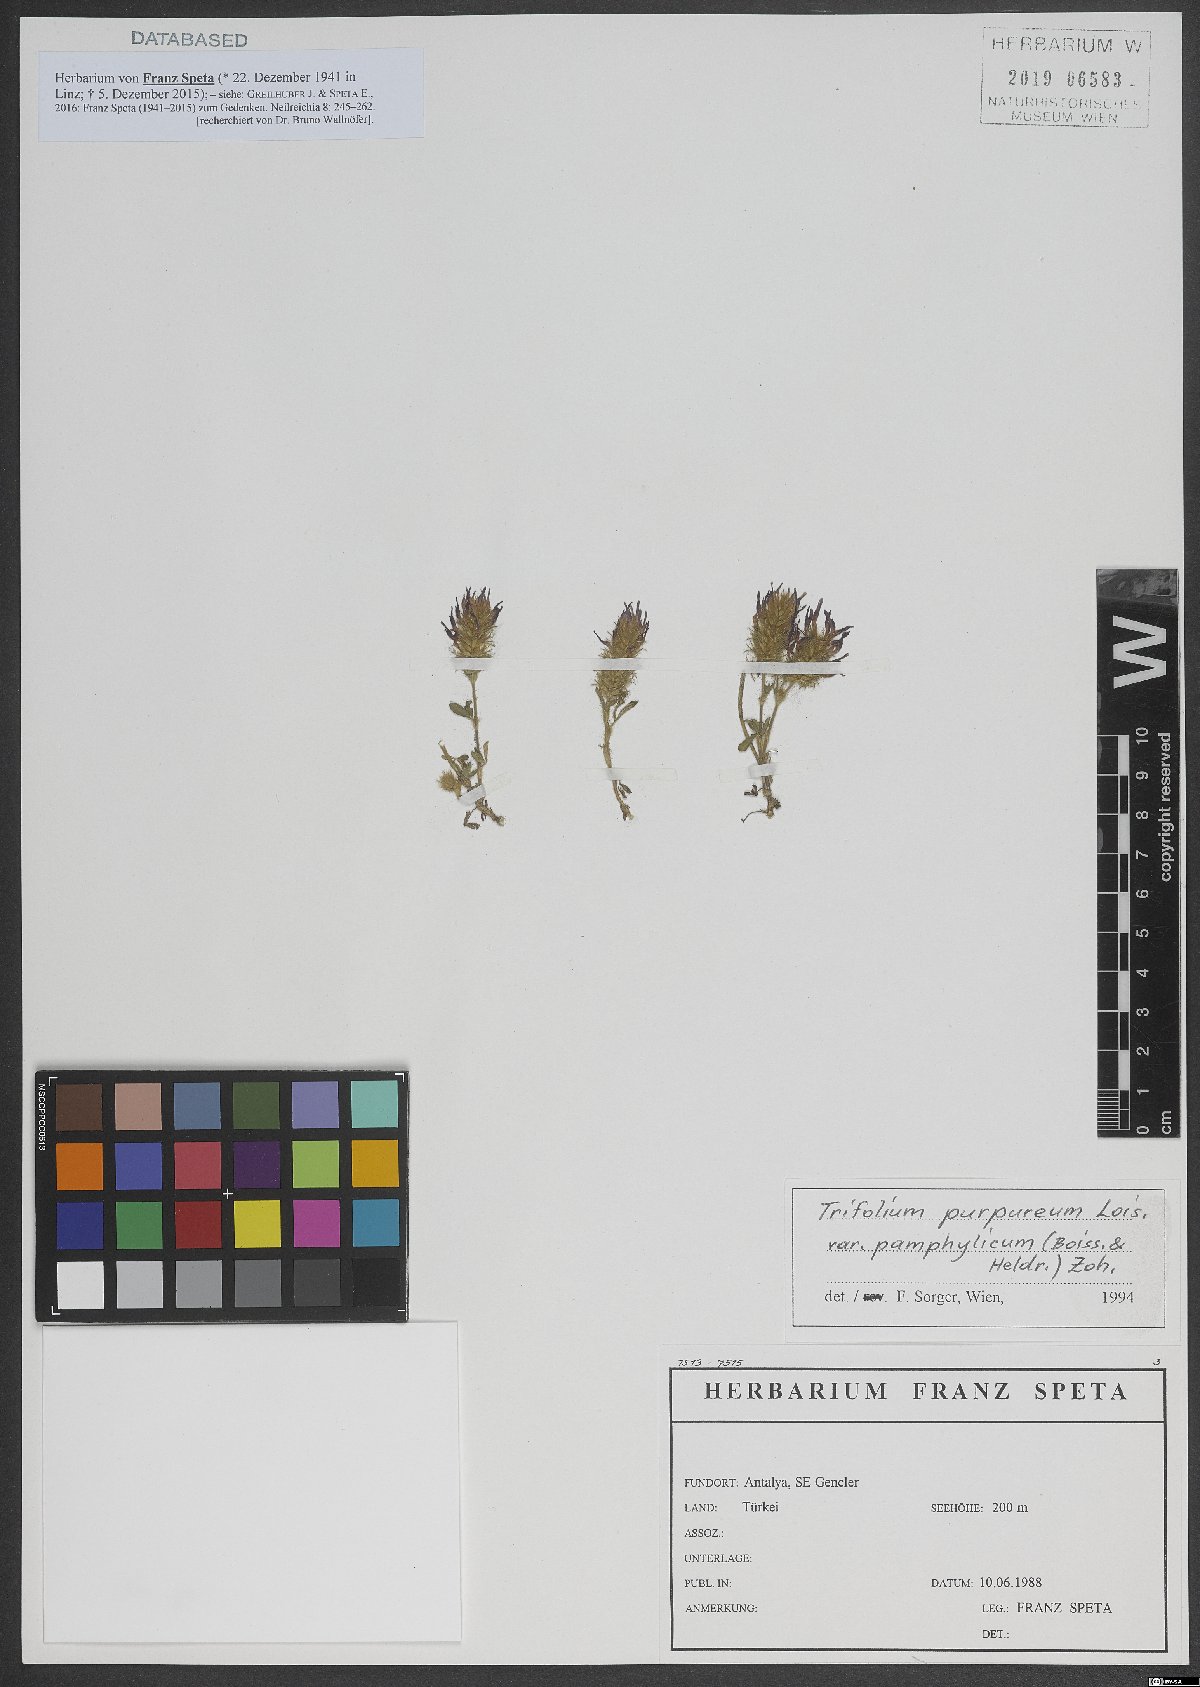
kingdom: Plantae
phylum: Tracheophyta
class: Magnoliopsida
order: Fabales
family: Fabaceae
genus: Trifolium
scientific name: Trifolium pamphylicum
